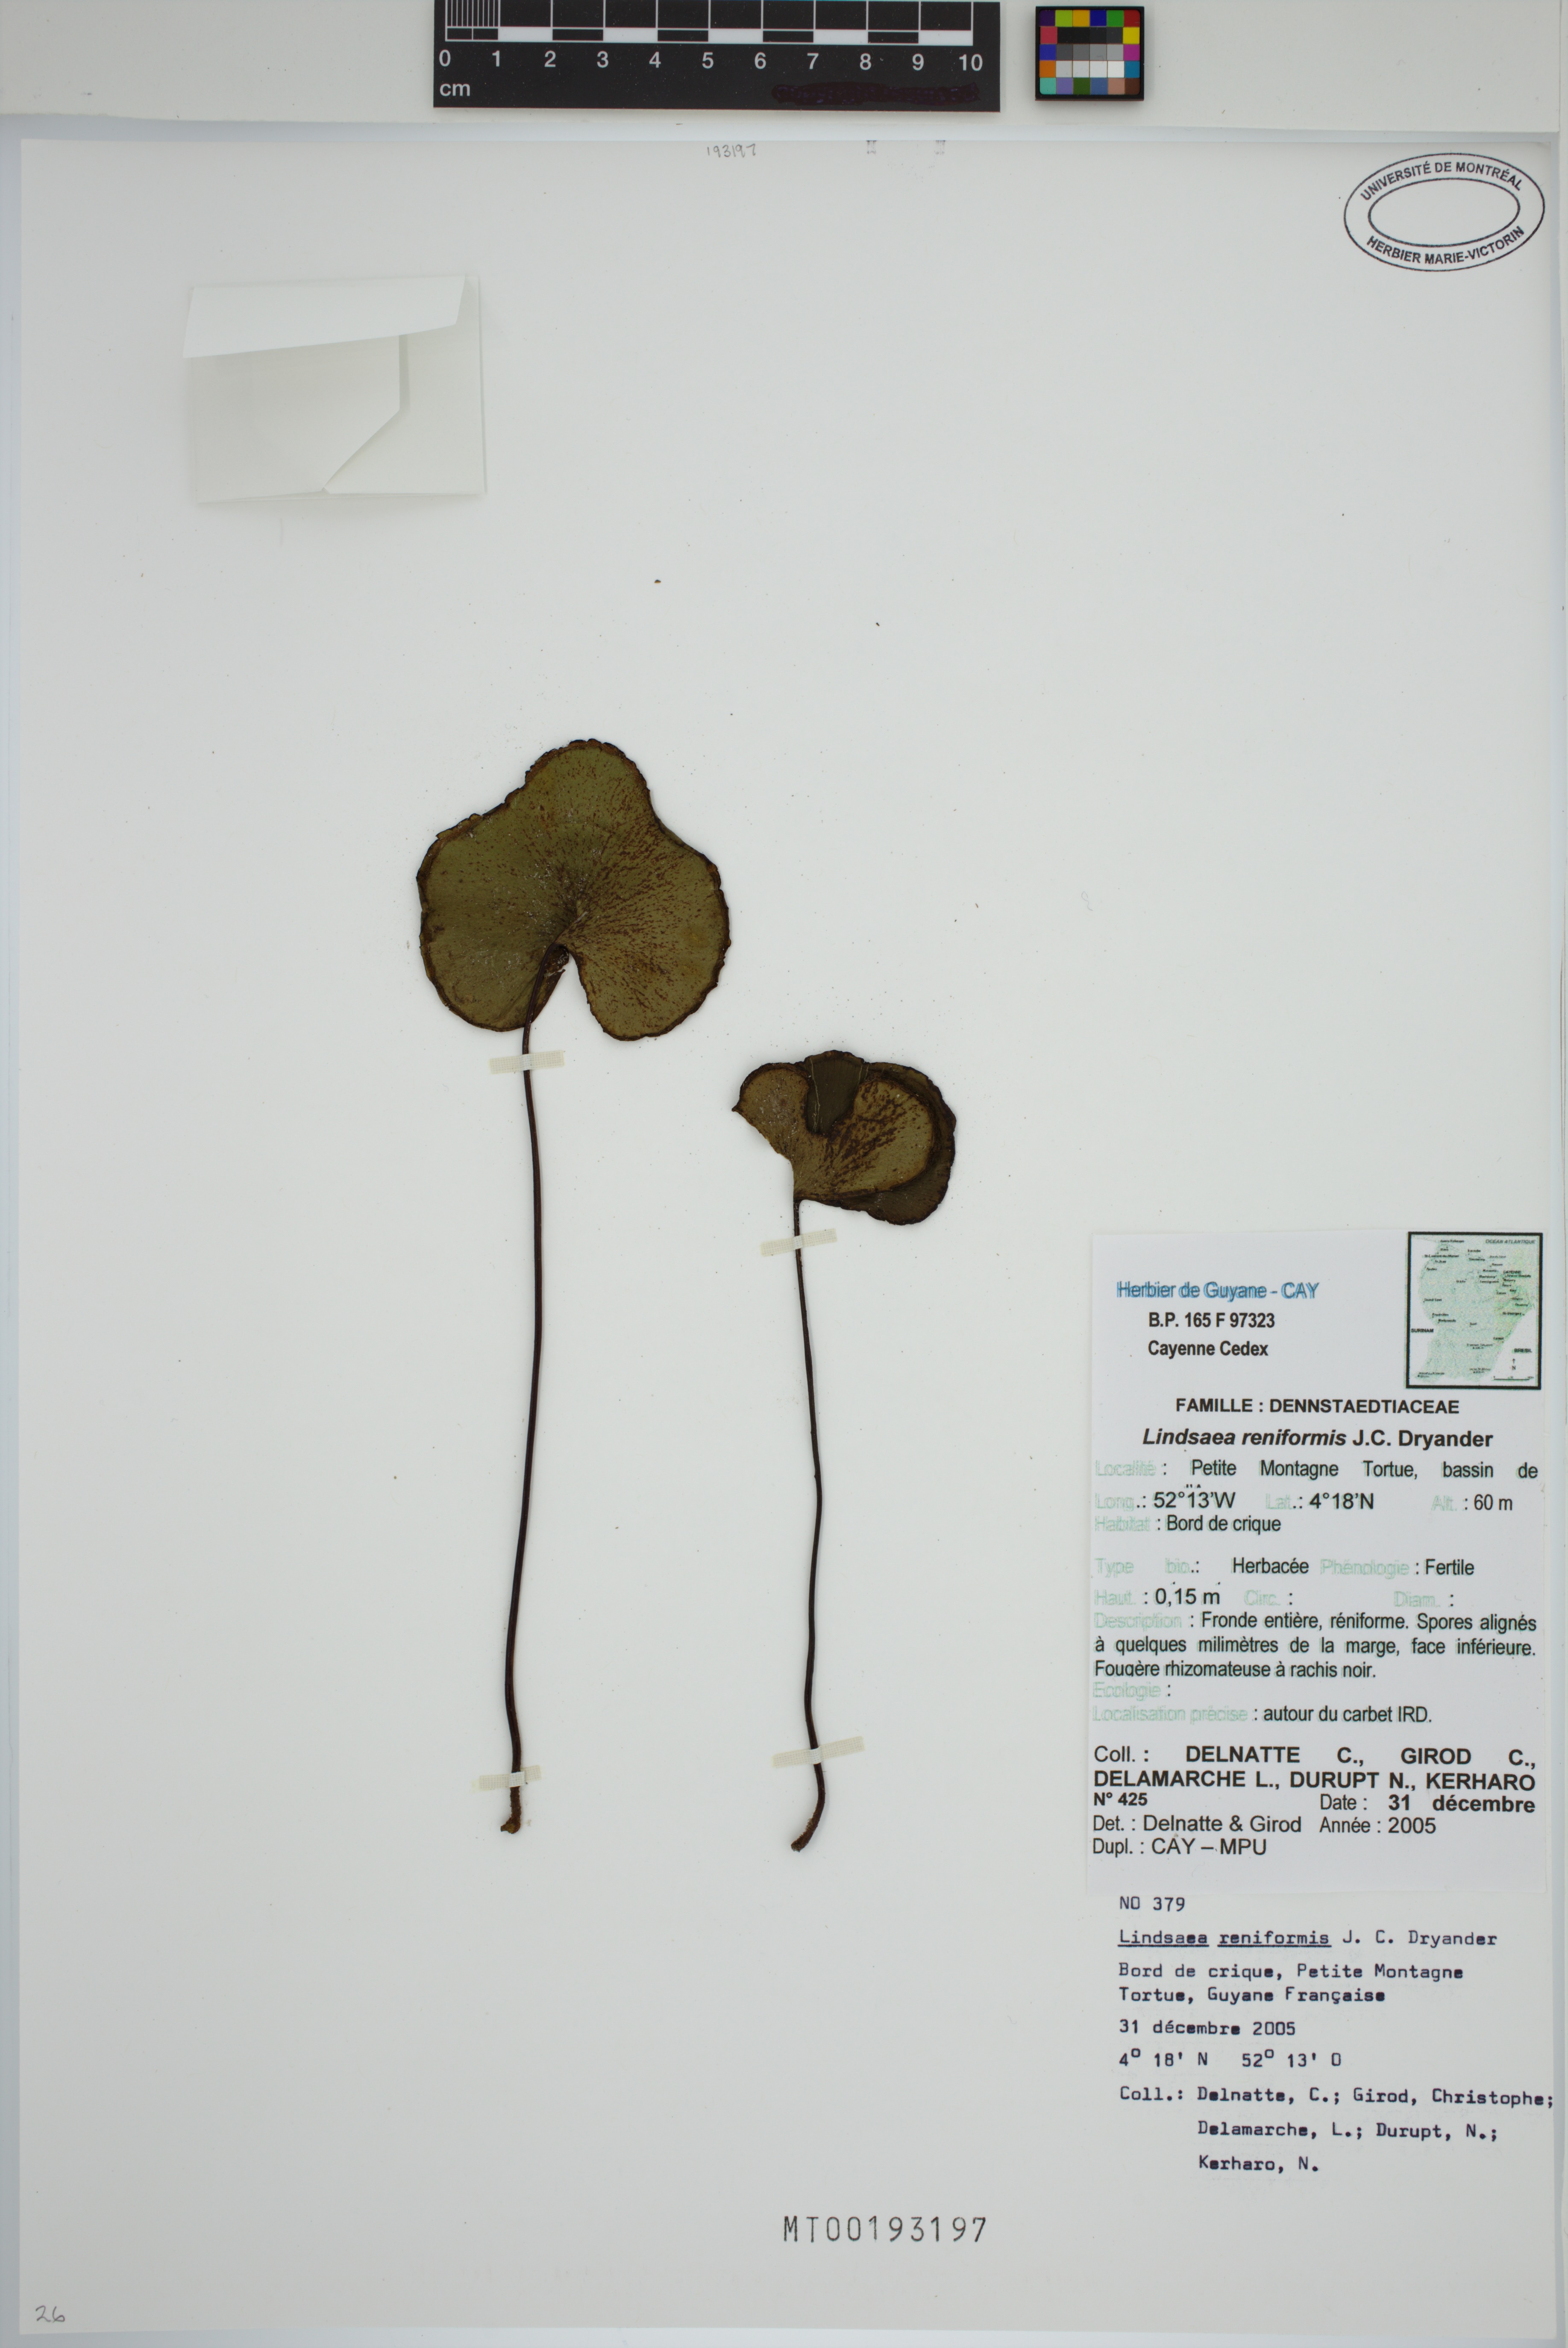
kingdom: Plantae
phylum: Tracheophyta
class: Polypodiopsida
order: Polypodiales
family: Lindsaeaceae
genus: Lindsaea
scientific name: Lindsaea reniformis
